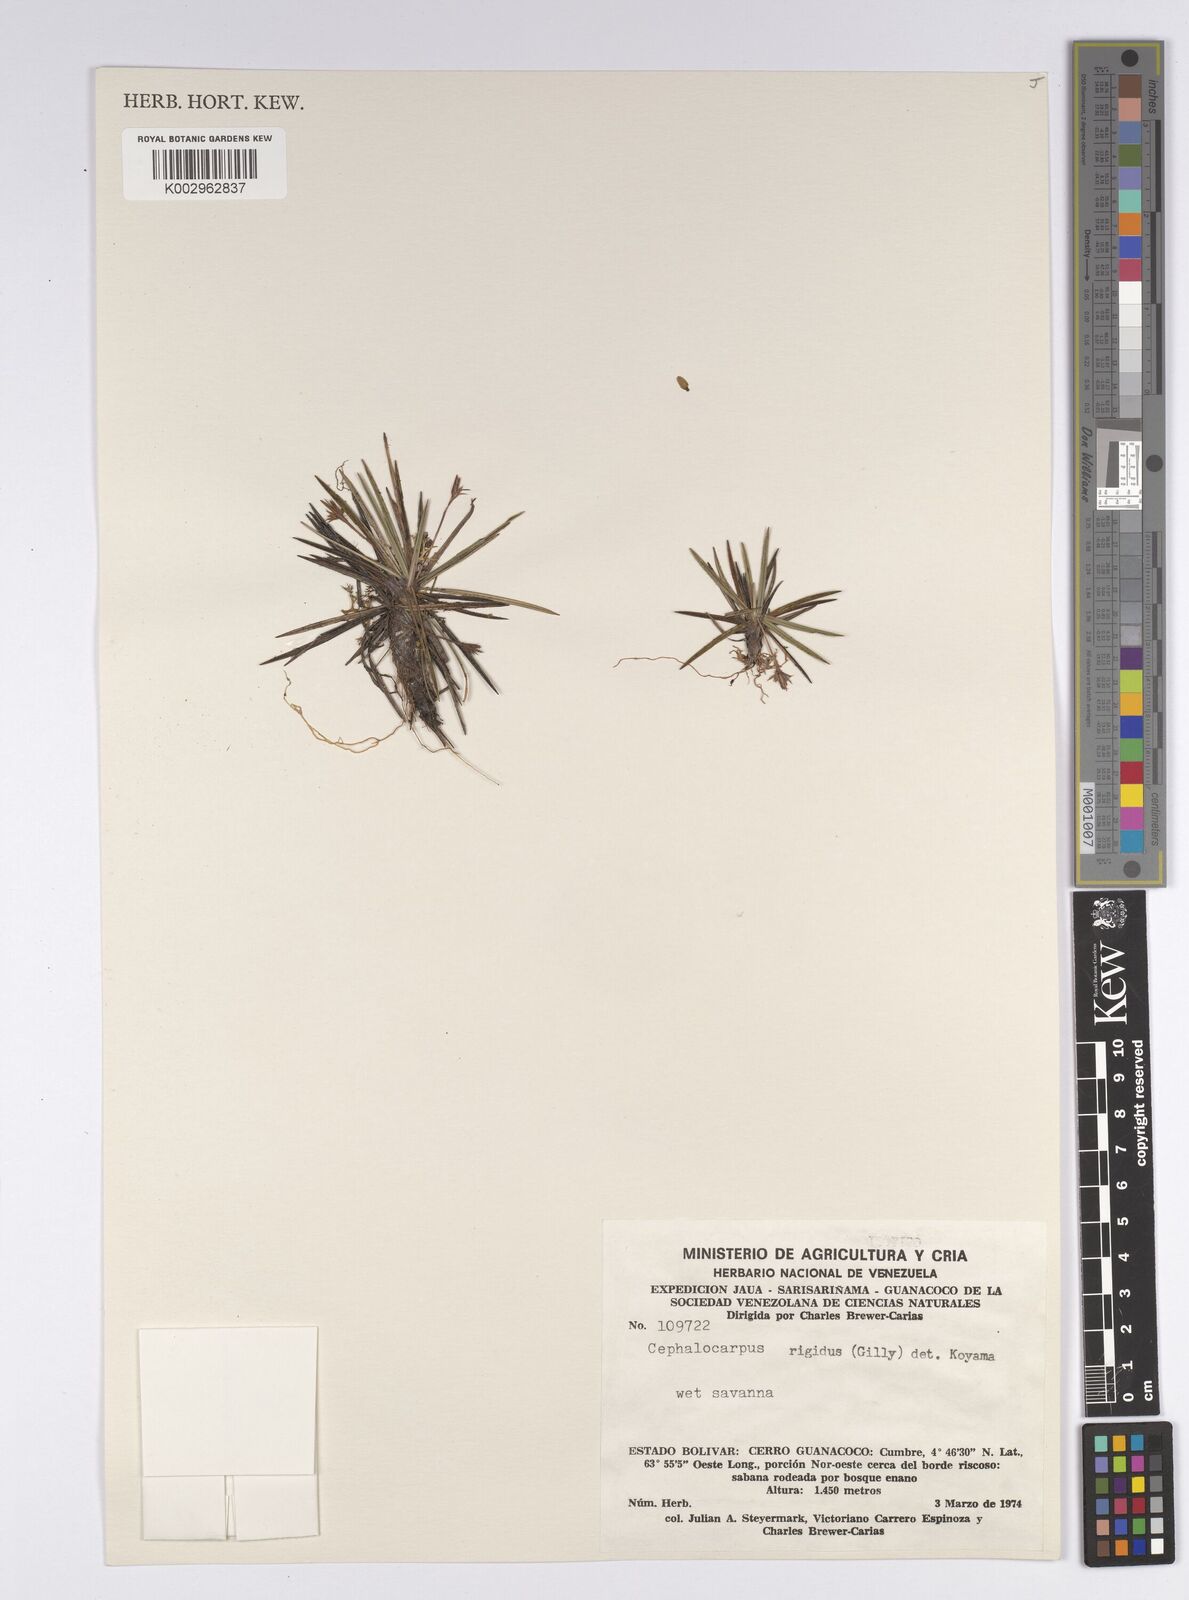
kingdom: Plantae
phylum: Tracheophyta
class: Liliopsida
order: Poales
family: Cyperaceae
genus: Cephalocarpus
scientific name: Cephalocarpus rigidus
